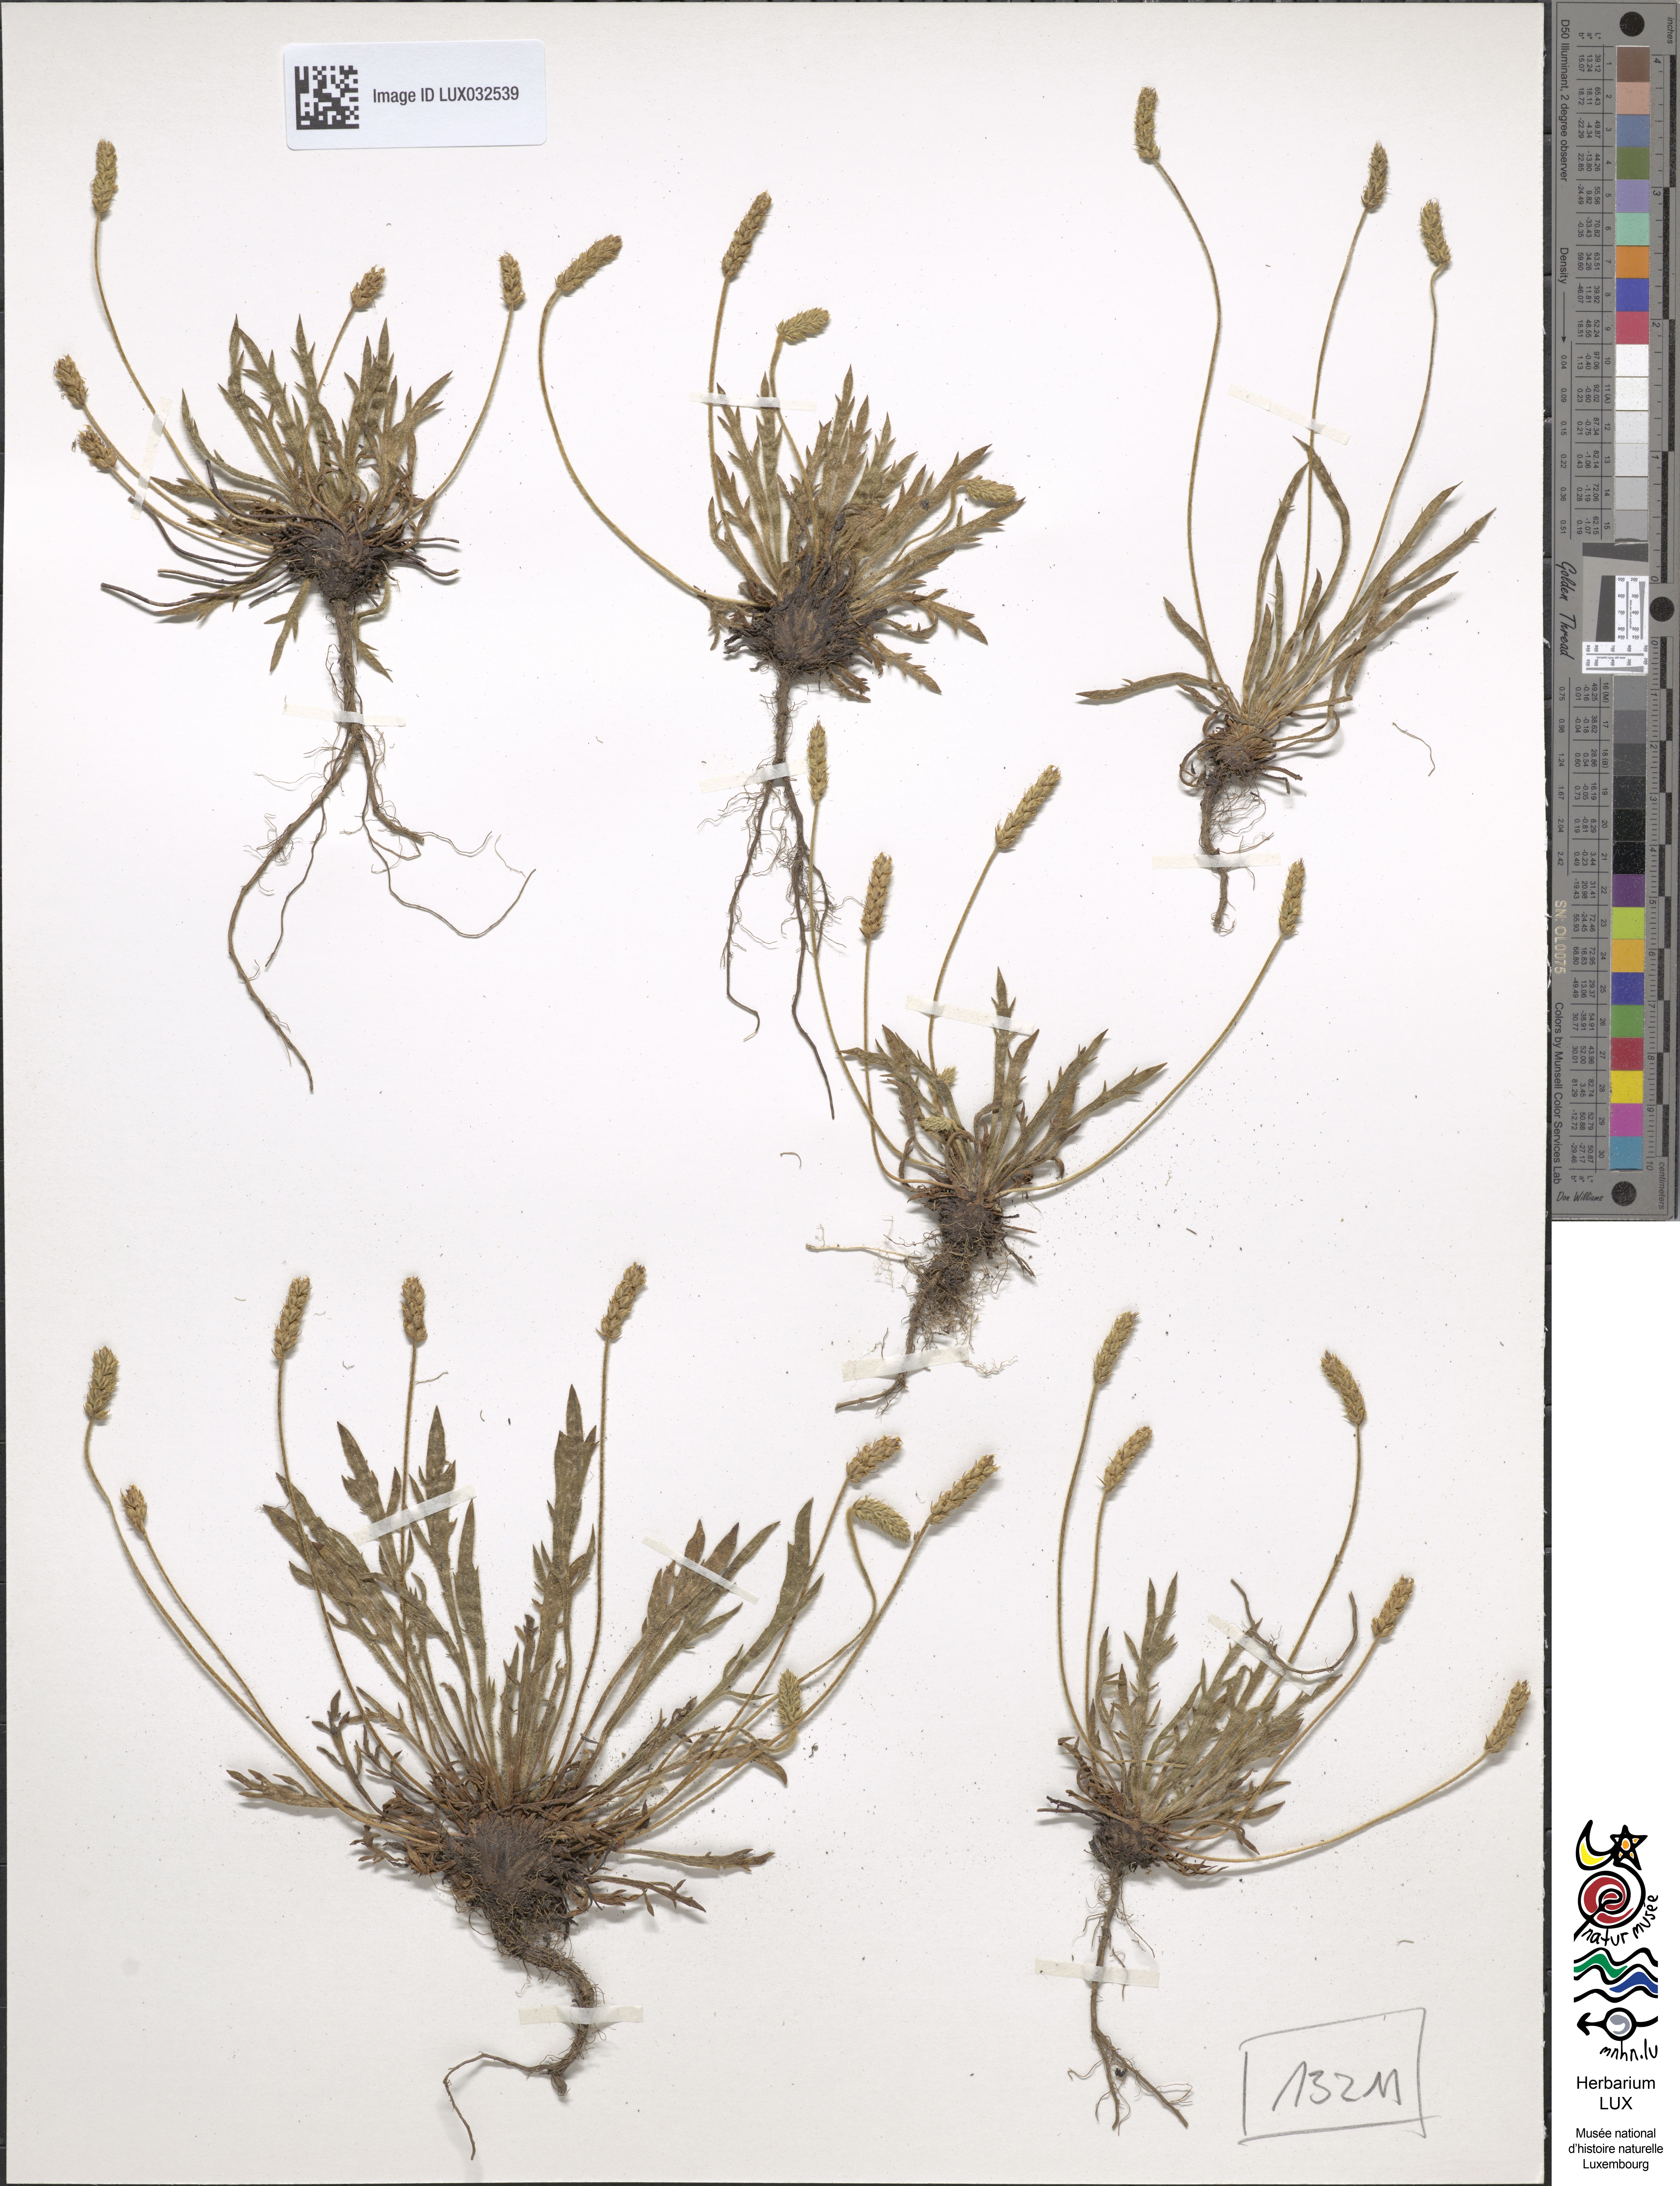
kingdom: Plantae
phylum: Tracheophyta
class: Magnoliopsida
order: Lamiales
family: Plantaginaceae
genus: Plantago
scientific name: Plantago coronopus
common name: Buck's-horn plantain
